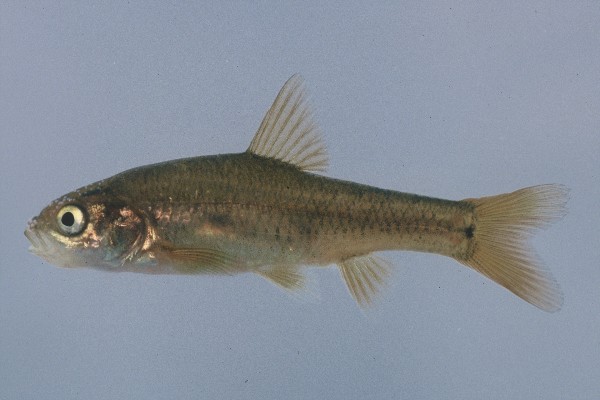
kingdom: Animalia
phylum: Chordata
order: Cypriniformes
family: Cyprinidae
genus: Enteromius
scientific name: Enteromius gurneyi
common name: Redtail barb
